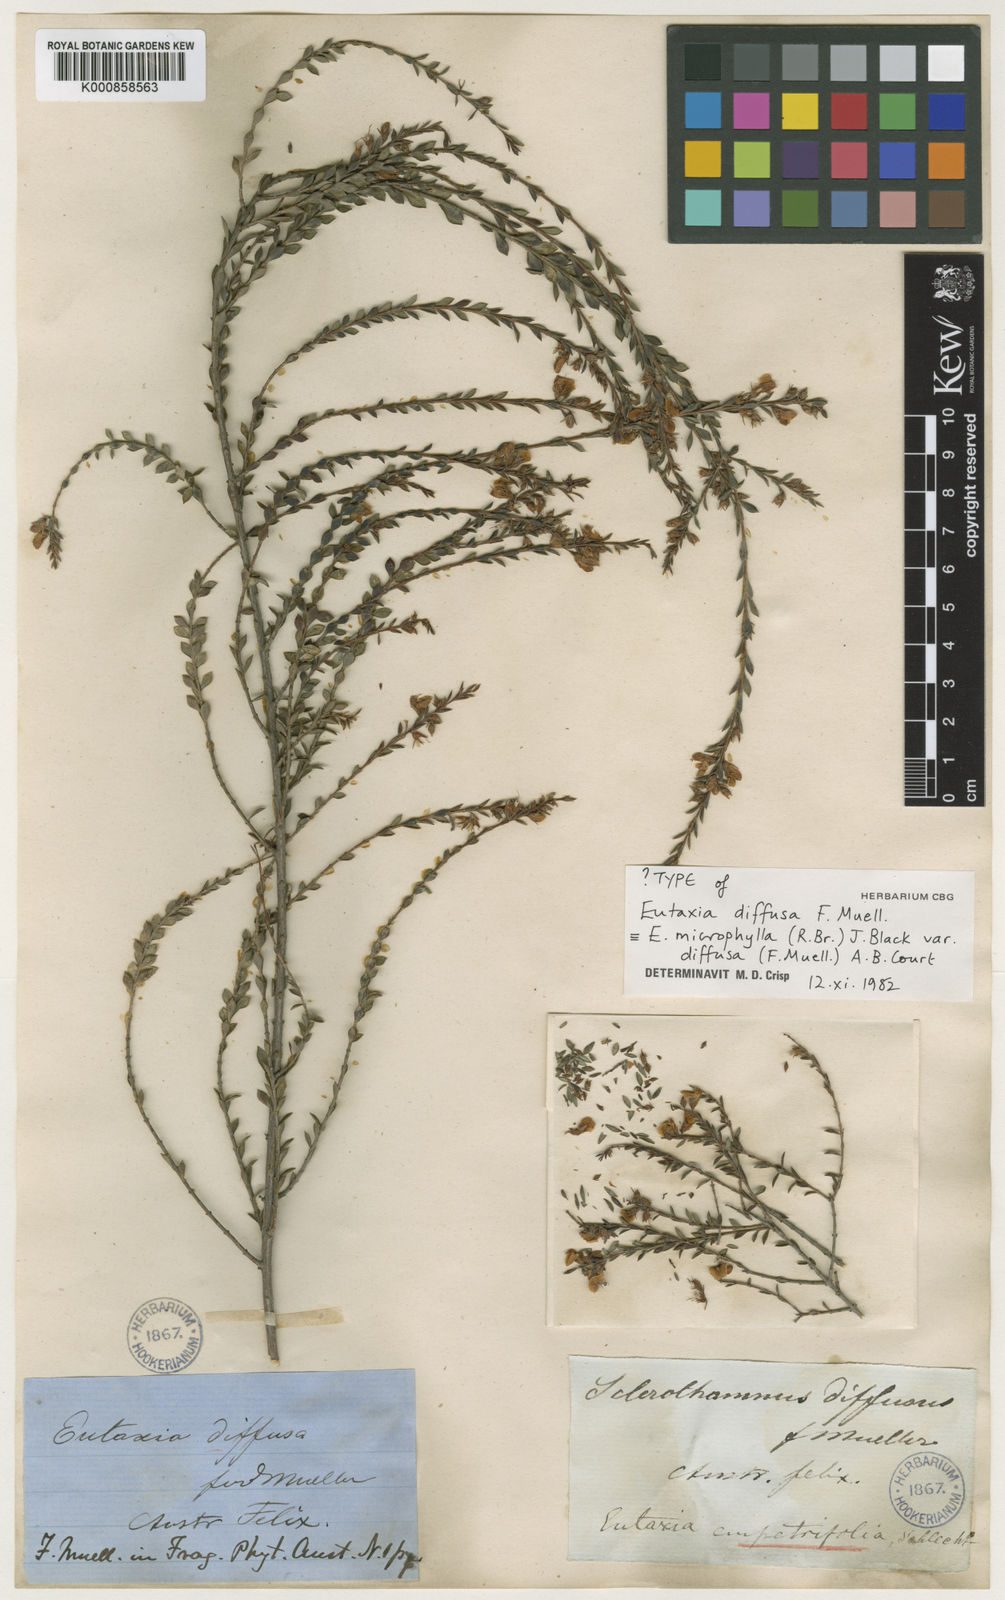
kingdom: Plantae
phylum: Tracheophyta
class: Magnoliopsida
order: Fabales
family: Fabaceae
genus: Eutaxia
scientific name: Eutaxia diffusa
